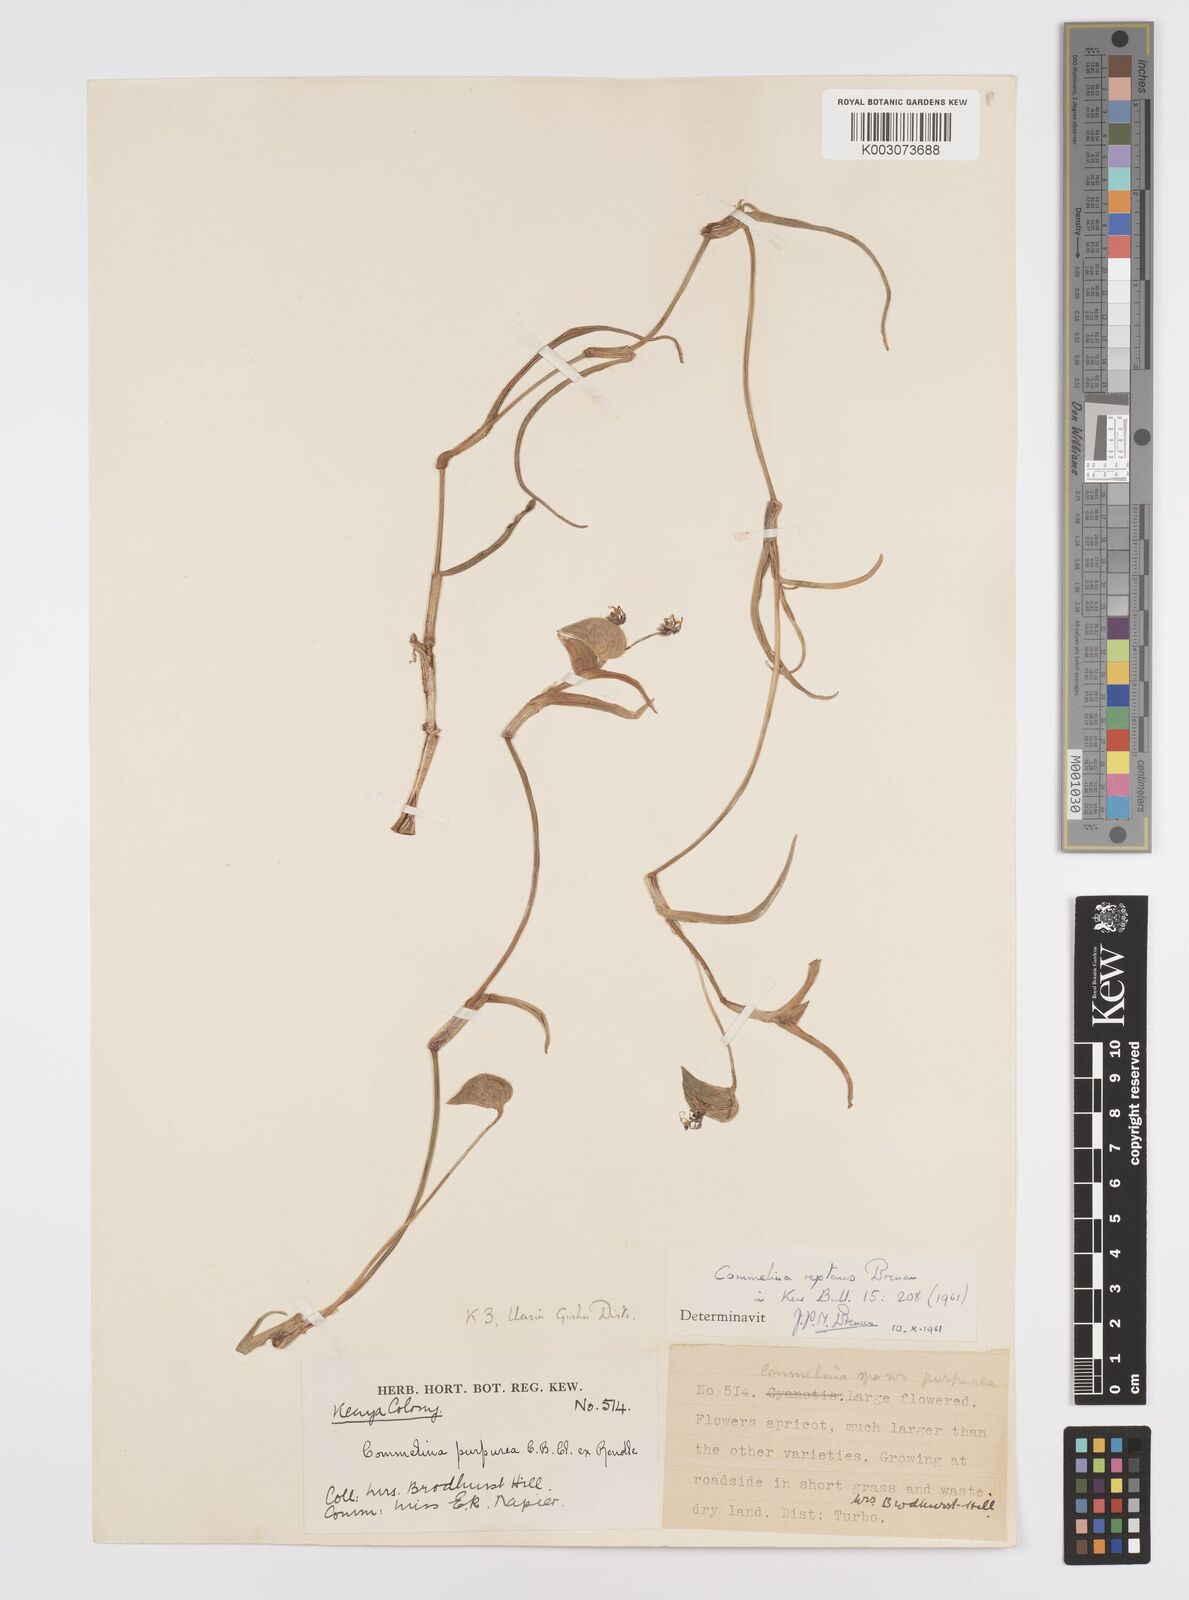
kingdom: Plantae
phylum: Tracheophyta
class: Liliopsida
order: Commelinales
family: Commelinaceae
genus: Commelina
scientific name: Commelina reptans
